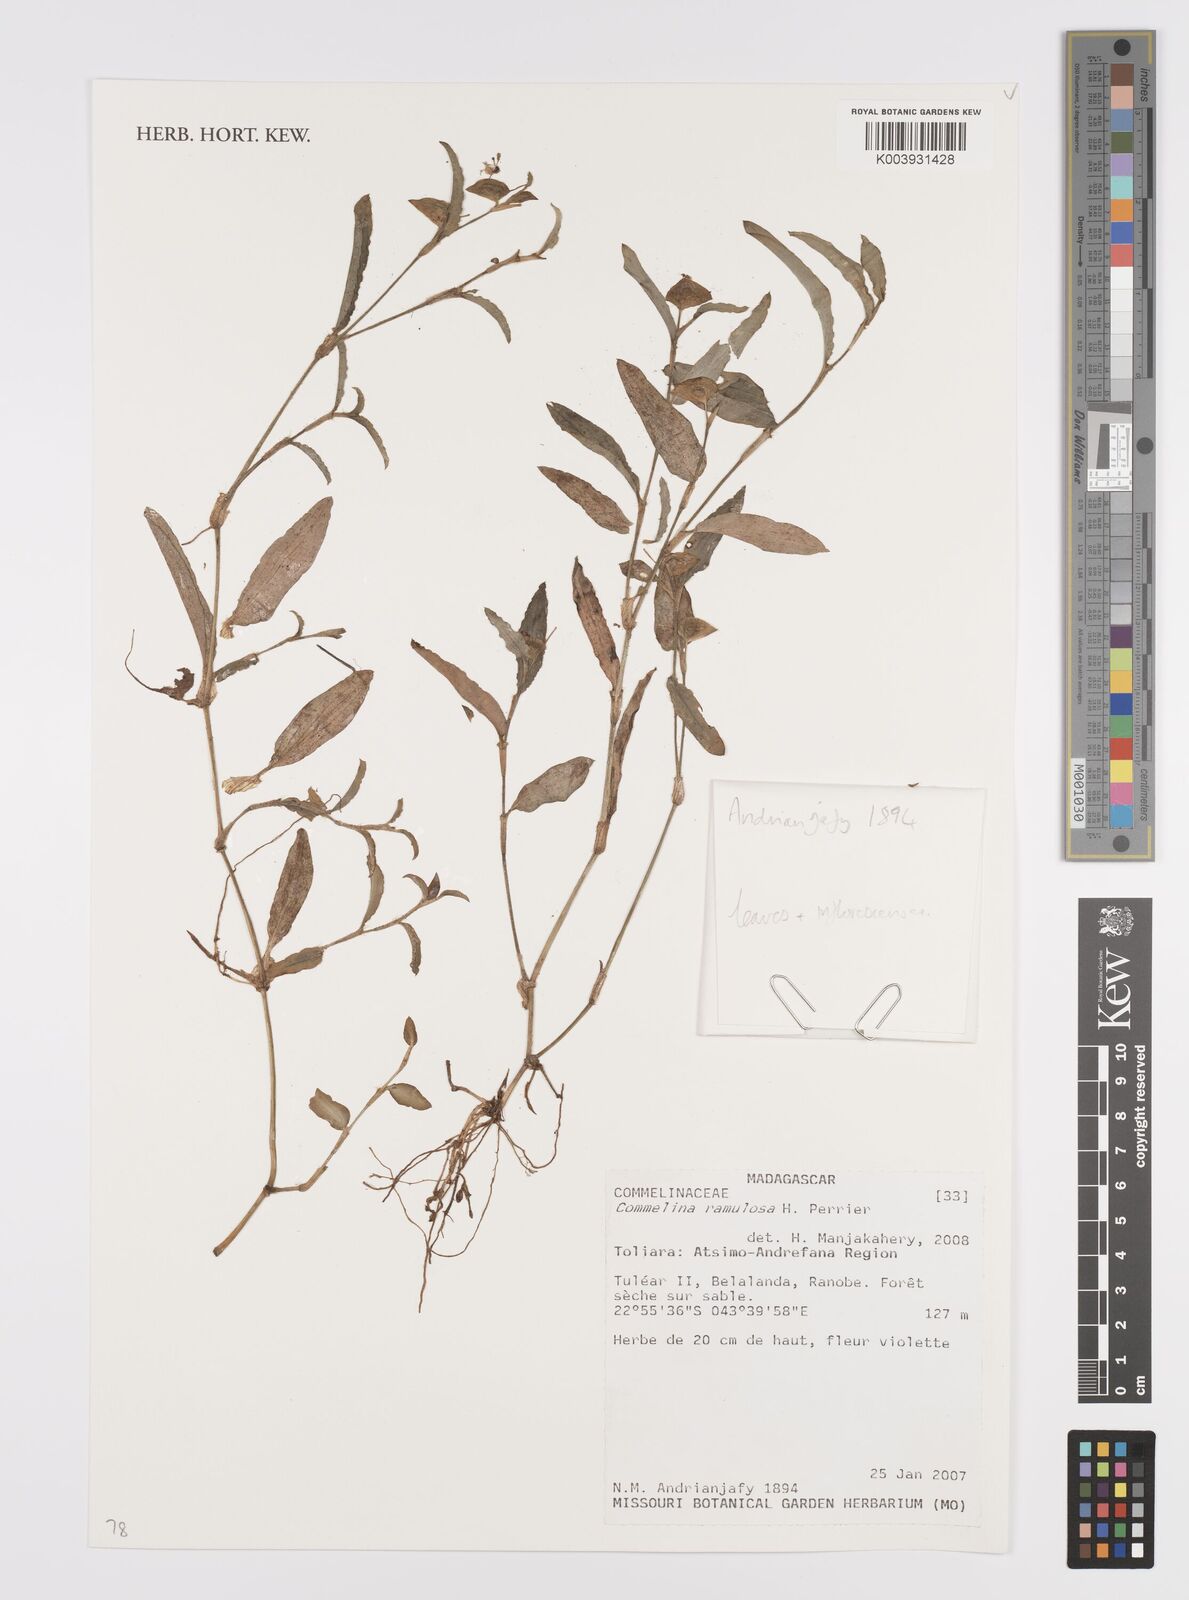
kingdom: Plantae
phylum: Tracheophyta
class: Liliopsida
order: Commelinales
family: Commelinaceae
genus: Commelina
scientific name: Commelina ramulosa
